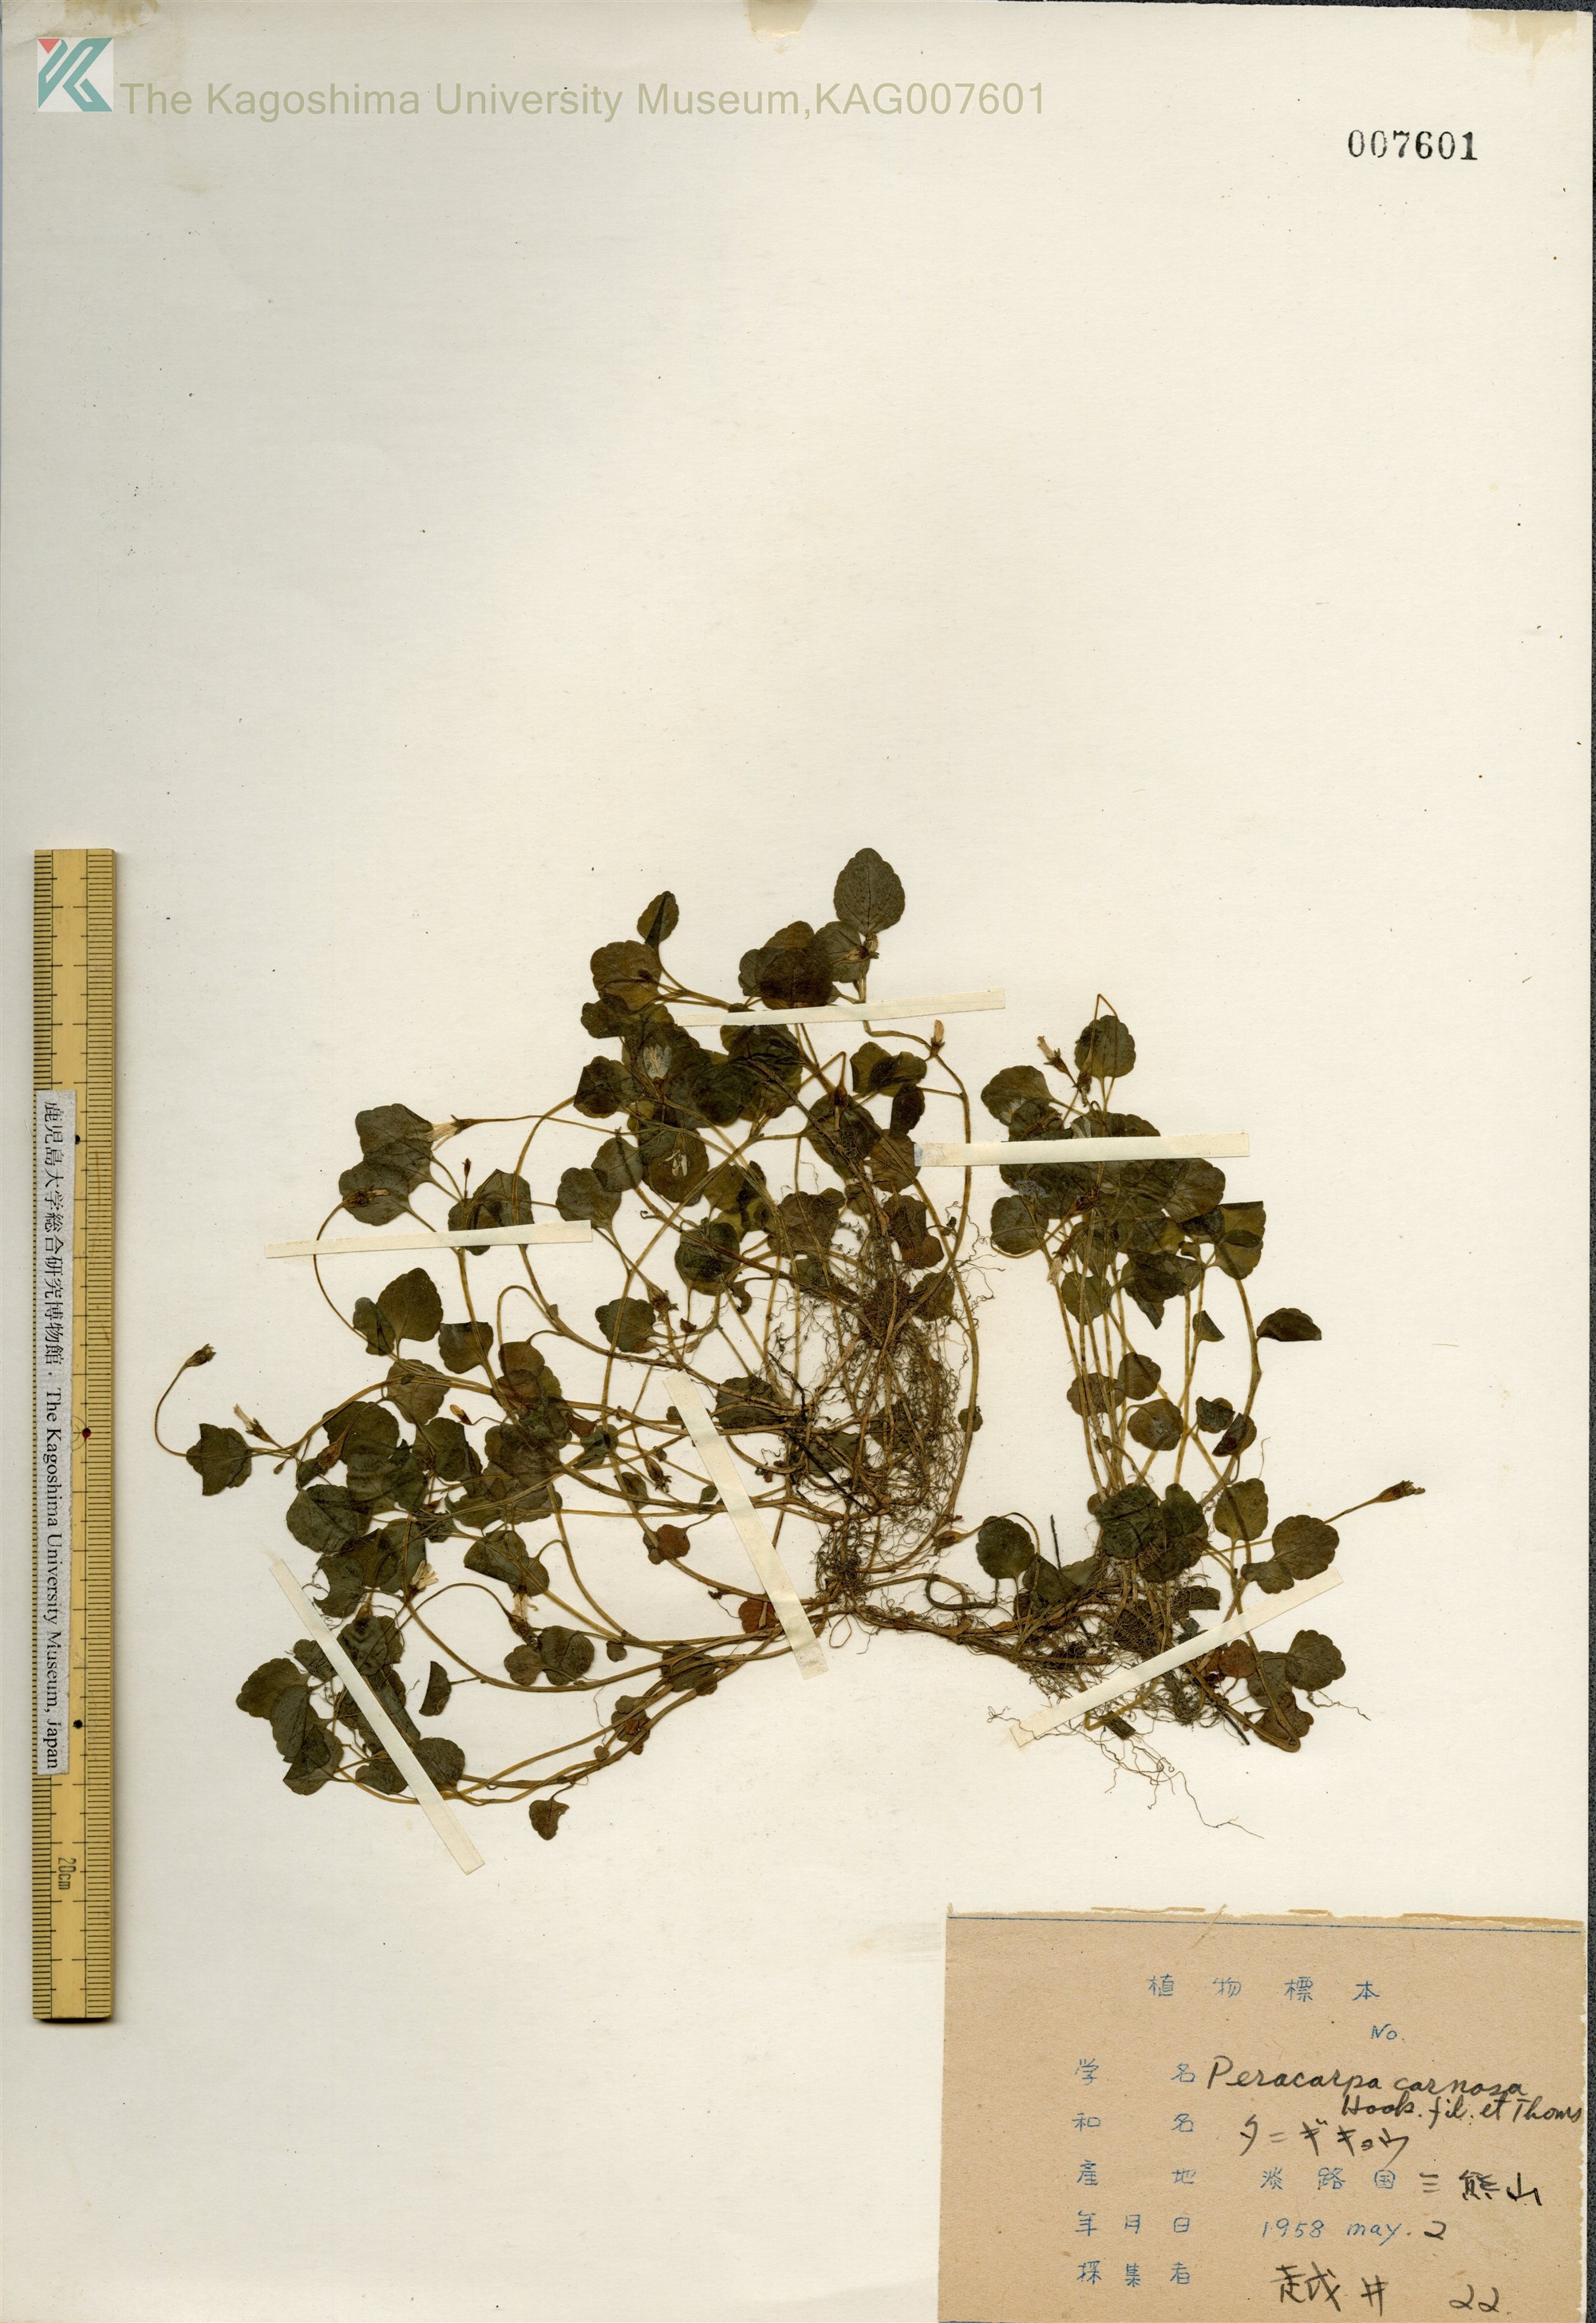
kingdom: Plantae
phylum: Tracheophyta
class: Magnoliopsida
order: Asterales
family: Campanulaceae
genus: Peracarpa
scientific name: Peracarpa carnosa
